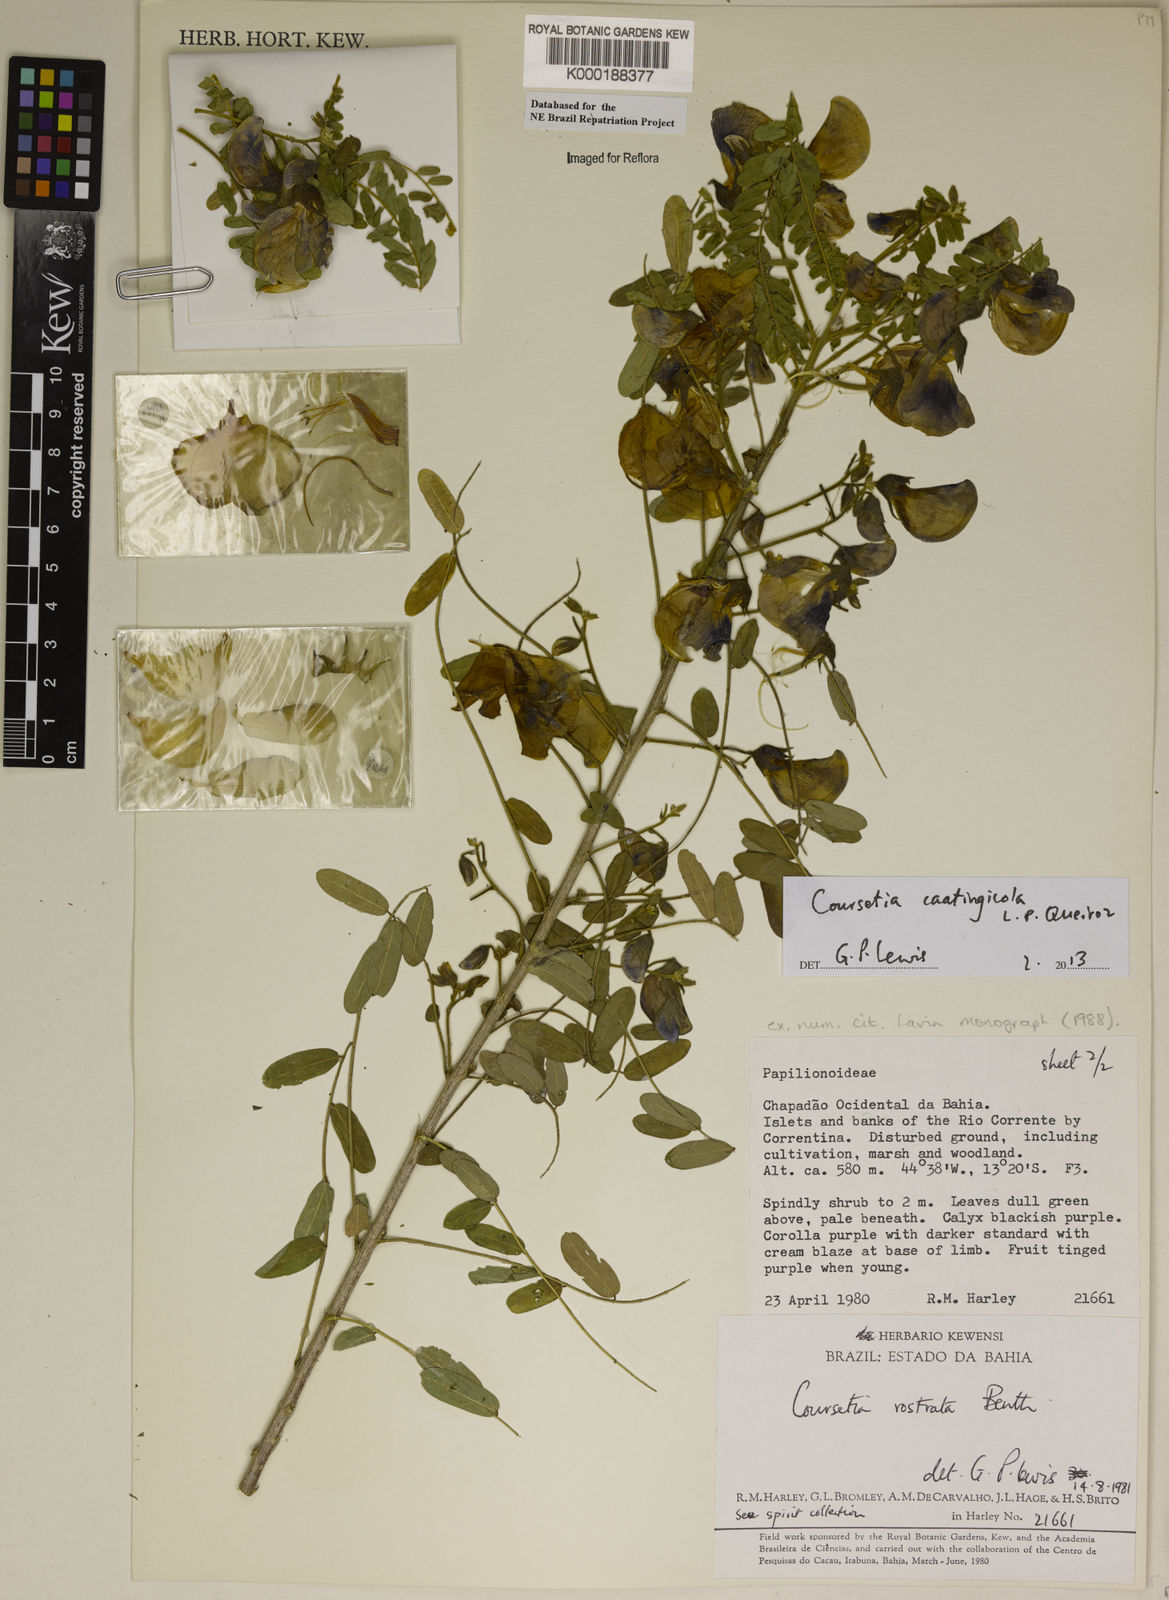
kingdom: Plantae
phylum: Tracheophyta
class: Magnoliopsida
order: Fabales
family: Fabaceae
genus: Coursetia
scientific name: Coursetia rostrata
